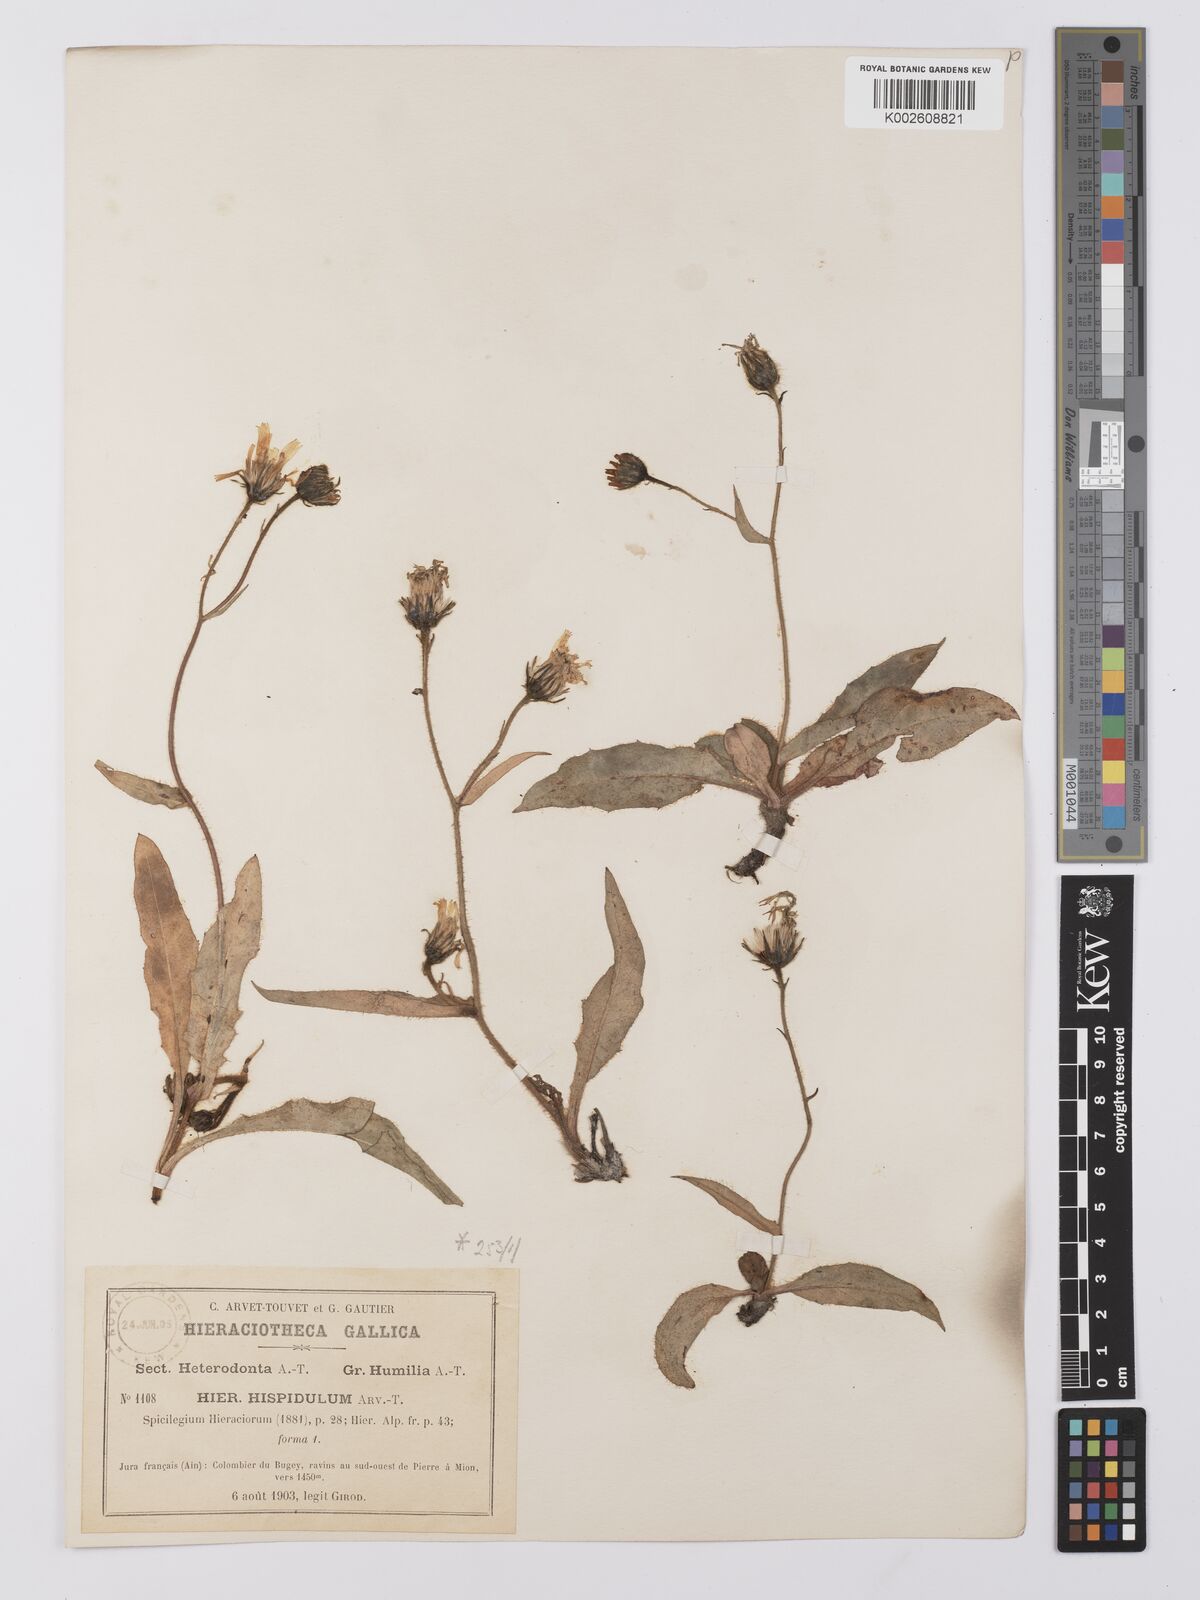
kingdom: Plantae
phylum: Tracheophyta
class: Magnoliopsida
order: Asterales
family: Asteraceae
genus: Hieracium
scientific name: Hieracium hispidulum
